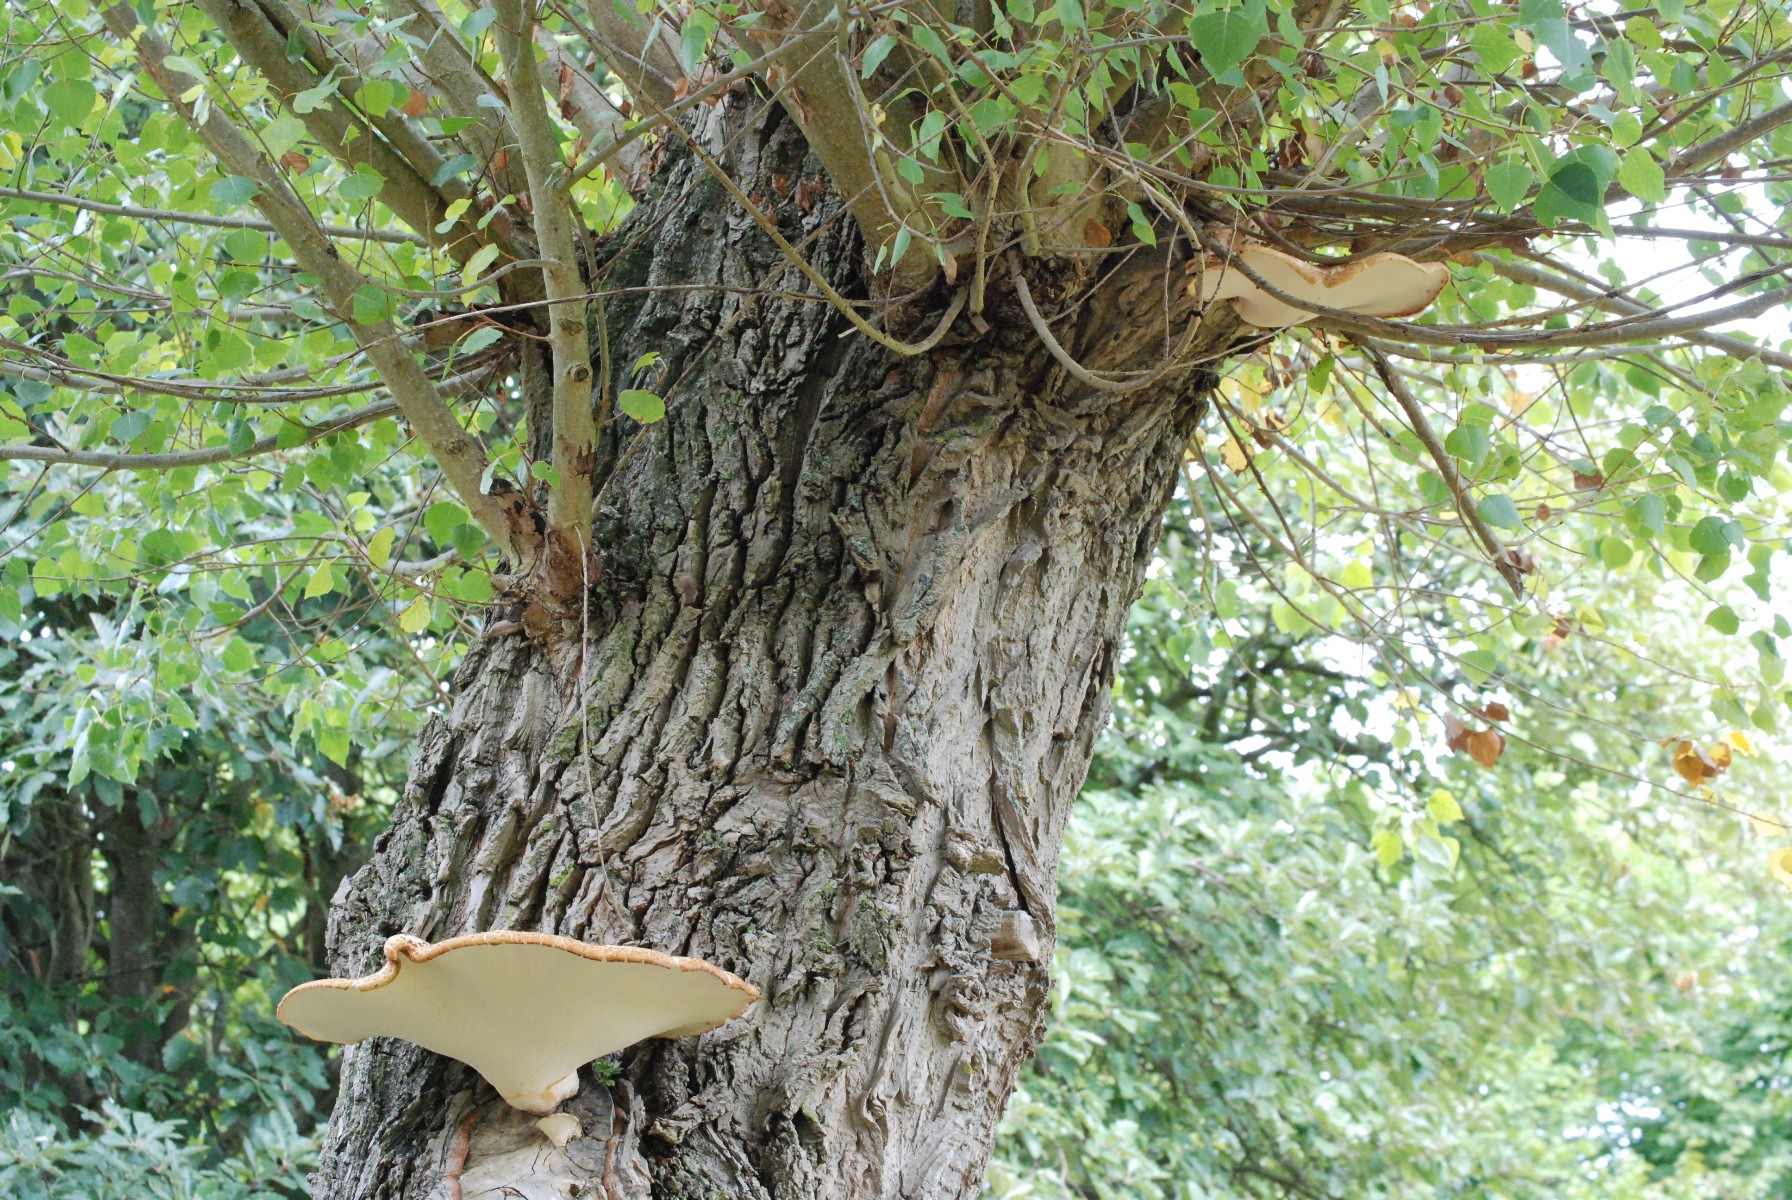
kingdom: Fungi
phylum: Basidiomycota
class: Agaricomycetes
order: Polyporales
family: Polyporaceae
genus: Cerioporus
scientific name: Cerioporus squamosus
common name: skællet stilkporesvamp
